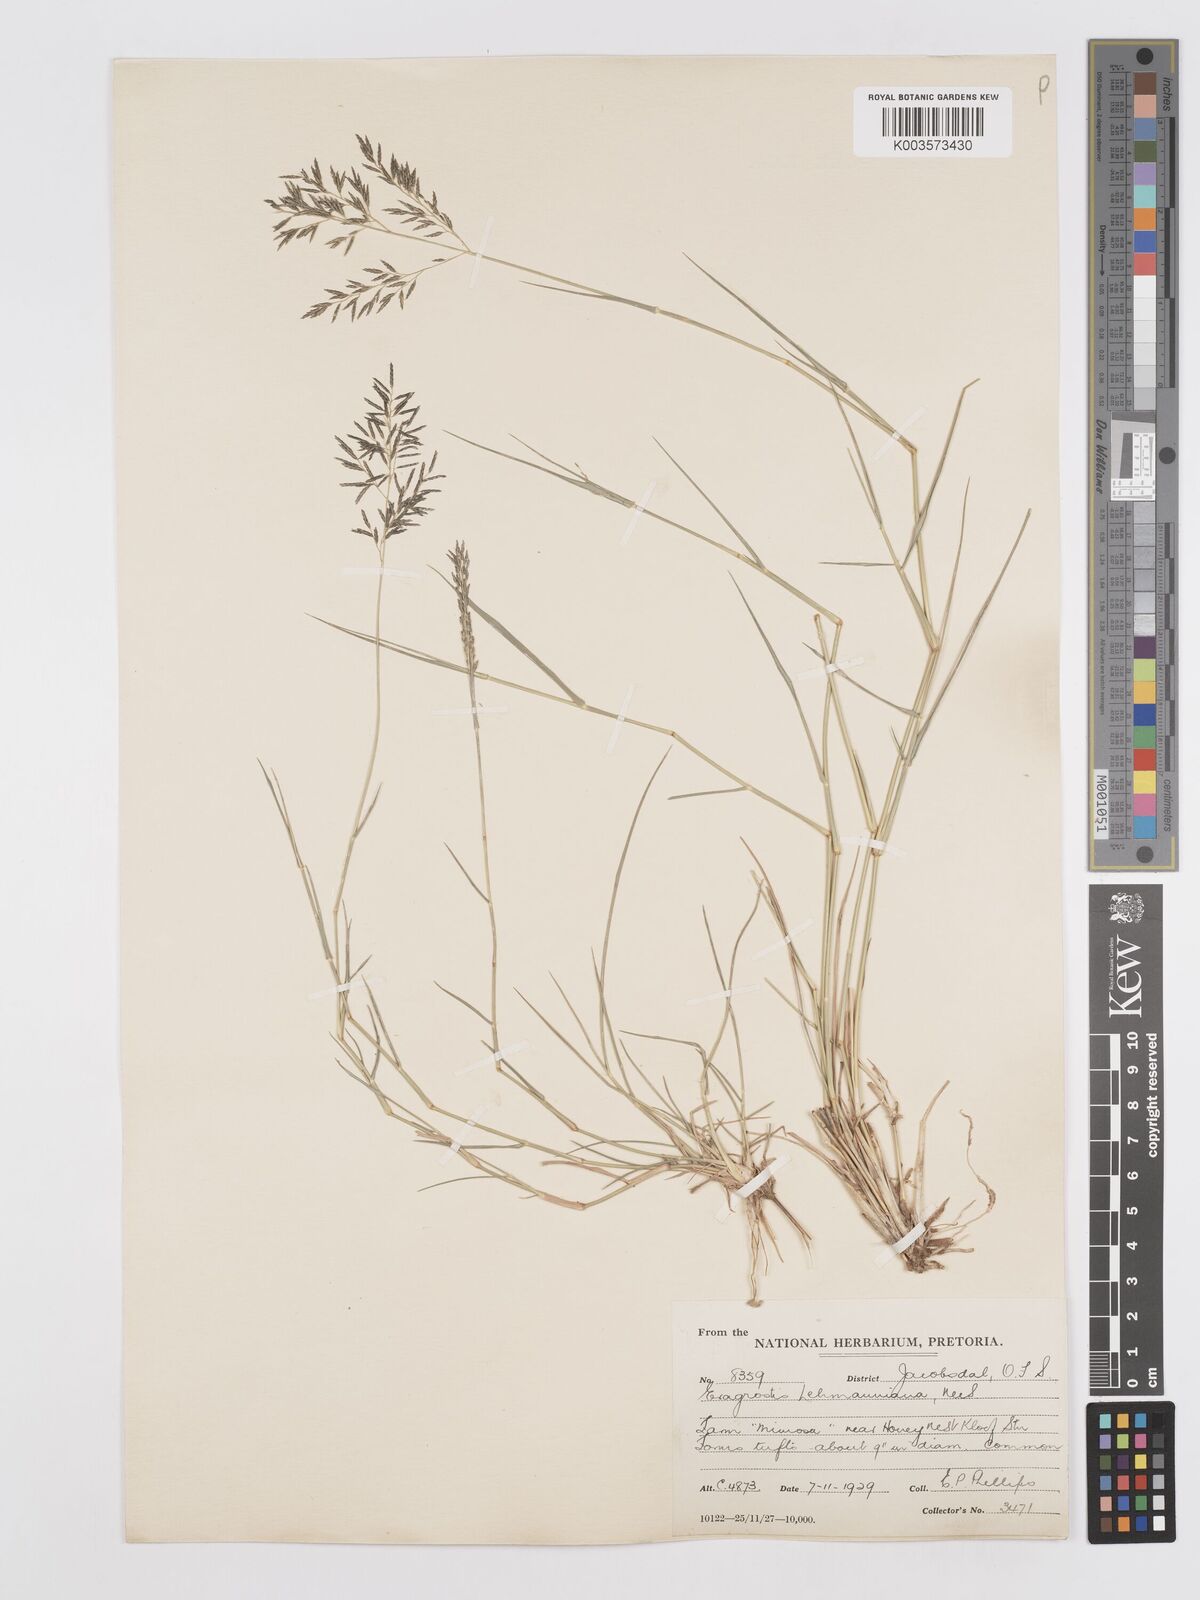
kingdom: Plantae
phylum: Tracheophyta
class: Liliopsida
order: Poales
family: Poaceae
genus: Eragrostis
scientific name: Eragrostis lehmanniana
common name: Lehmann lovegrass
